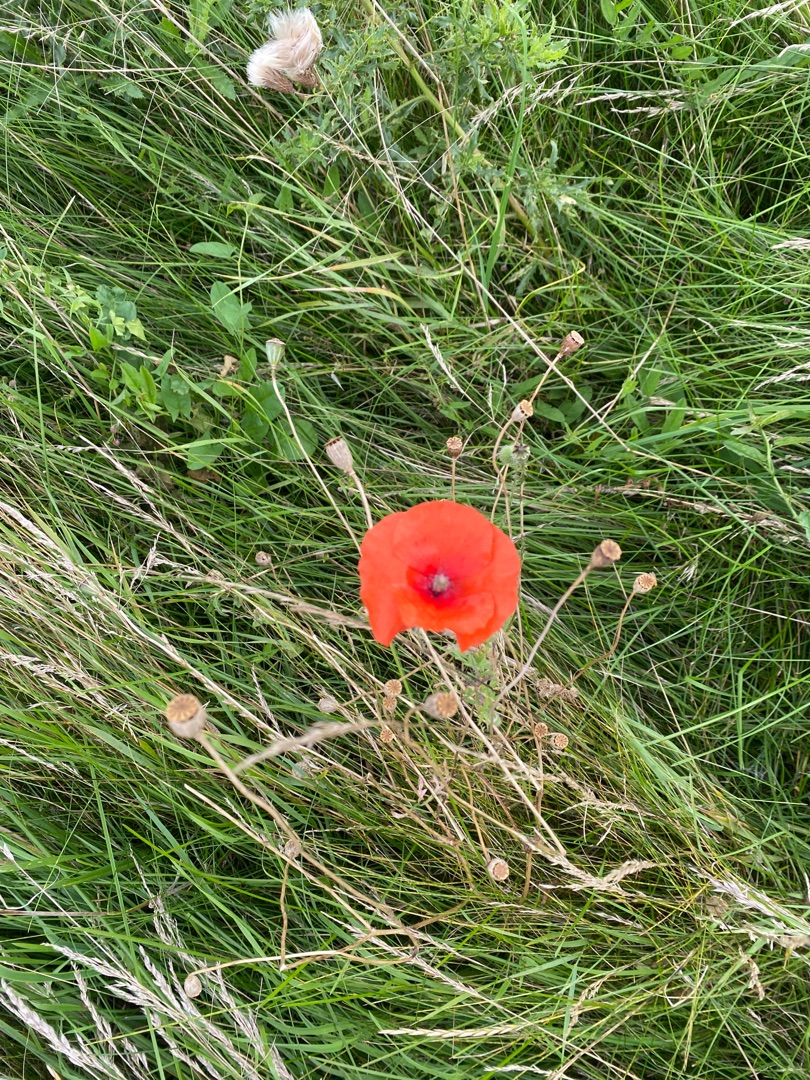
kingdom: Plantae
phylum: Tracheophyta
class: Magnoliopsida
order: Ranunculales
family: Papaveraceae
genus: Papaver
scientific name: Papaver rhoeas
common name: Korn-valmue
